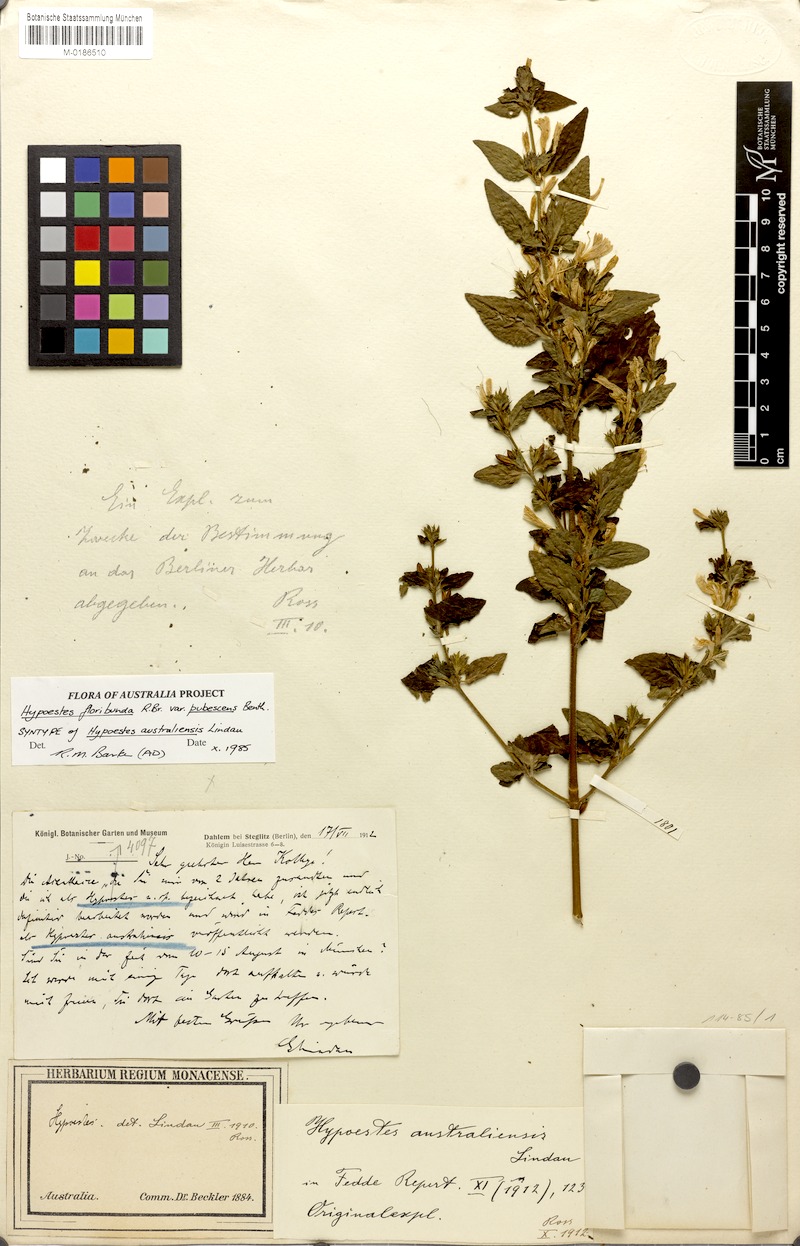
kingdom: Plantae
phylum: Tracheophyta
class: Magnoliopsida
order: Lamiales
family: Acanthaceae
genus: Hypoestes
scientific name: Hypoestes floribunda
